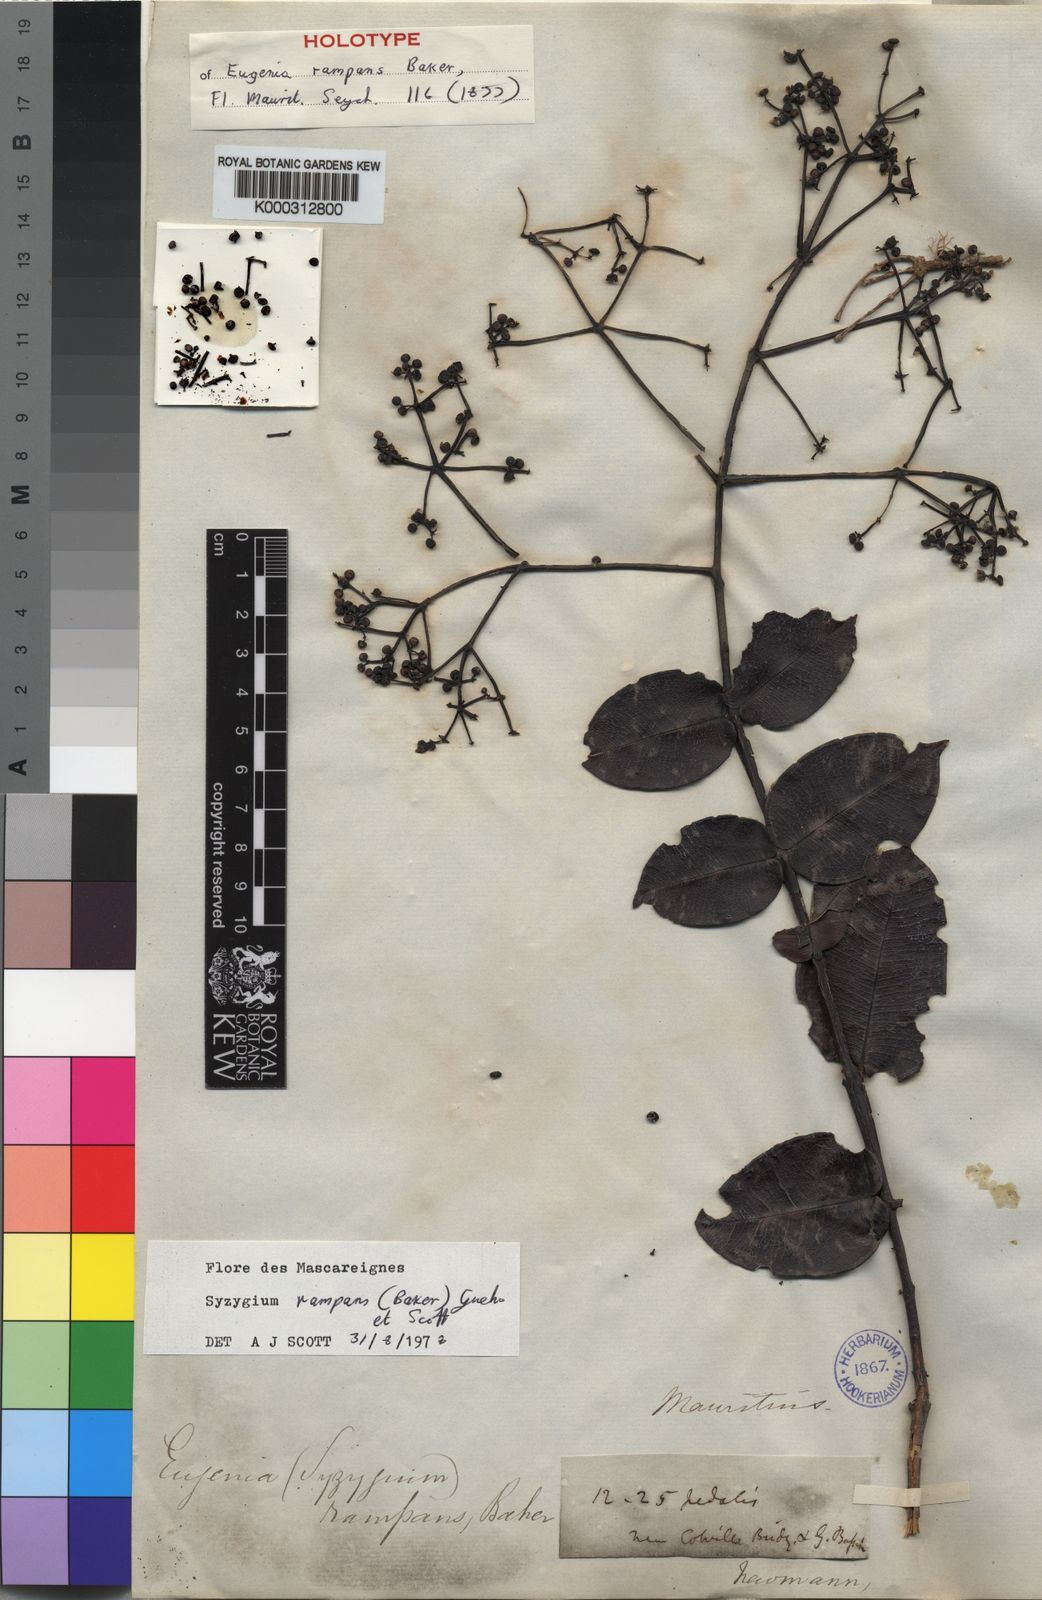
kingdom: Plantae
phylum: Tracheophyta
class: Magnoliopsida
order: Myrtales
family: Myrtaceae
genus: Syzygium
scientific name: Syzygium
